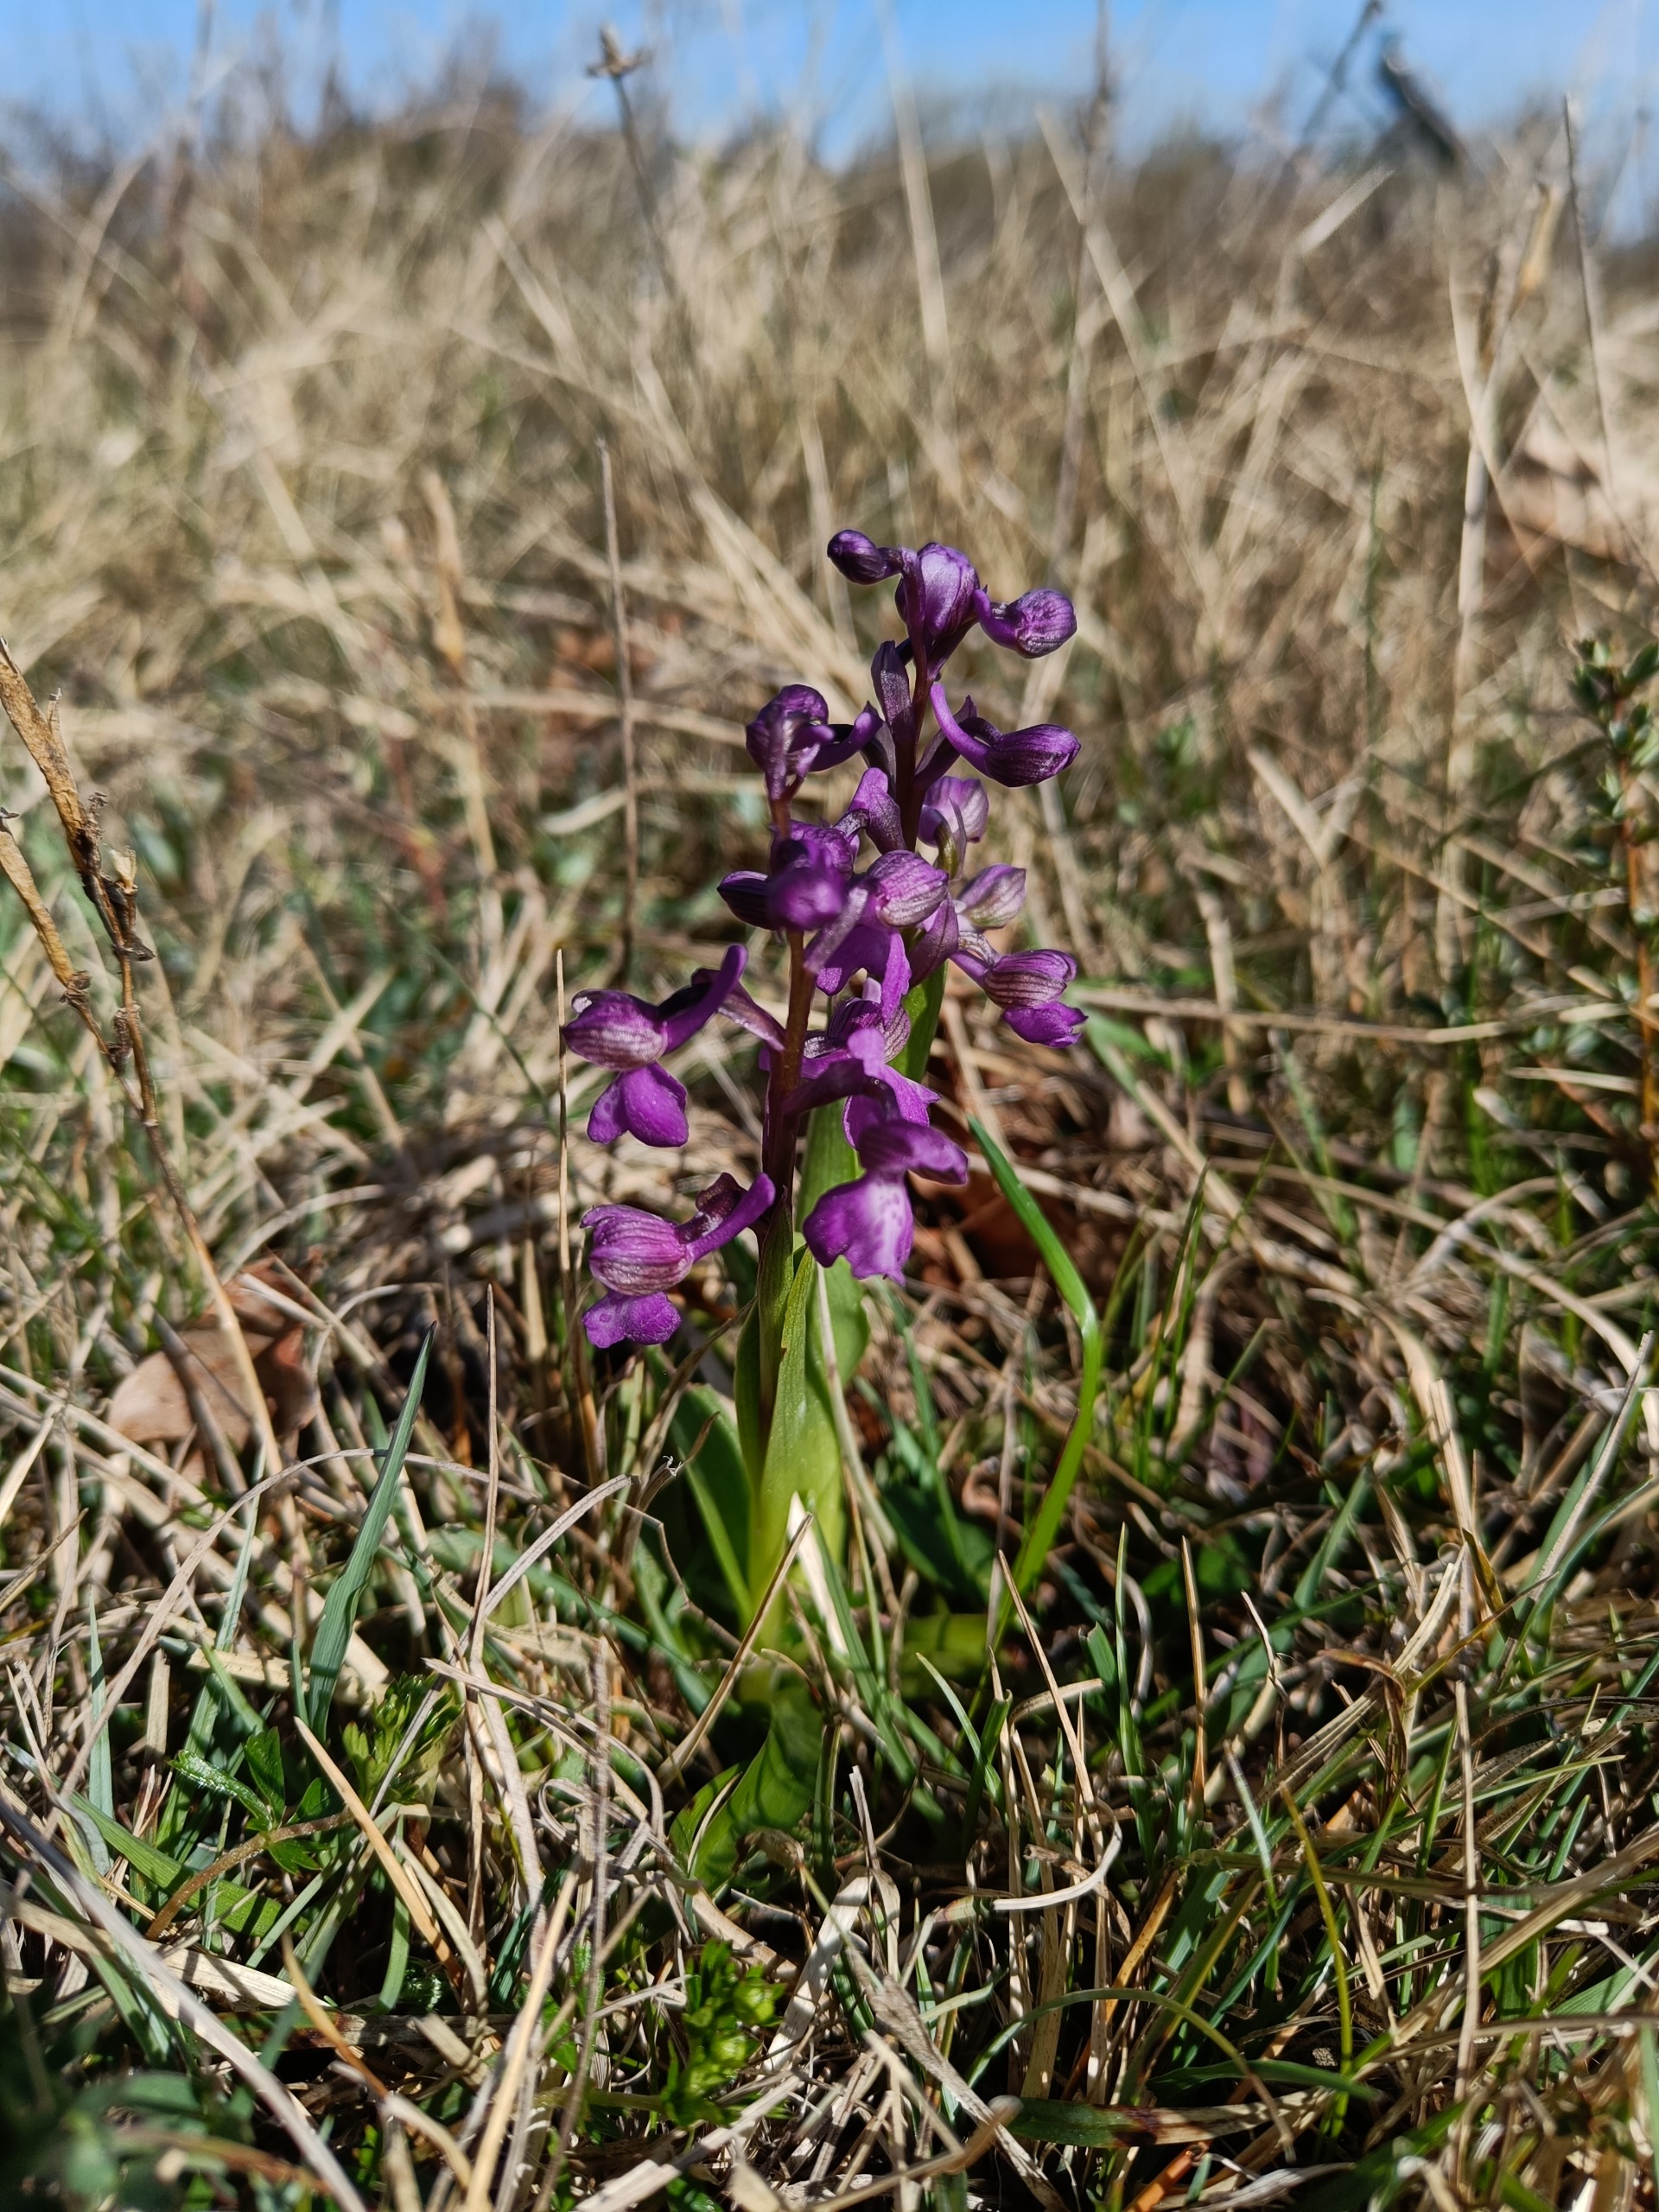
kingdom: Plantae
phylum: Tracheophyta
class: Liliopsida
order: Asparagales
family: Orchidaceae
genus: Anacamptis
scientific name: Anacamptis morio
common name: Salepgøgeurt
